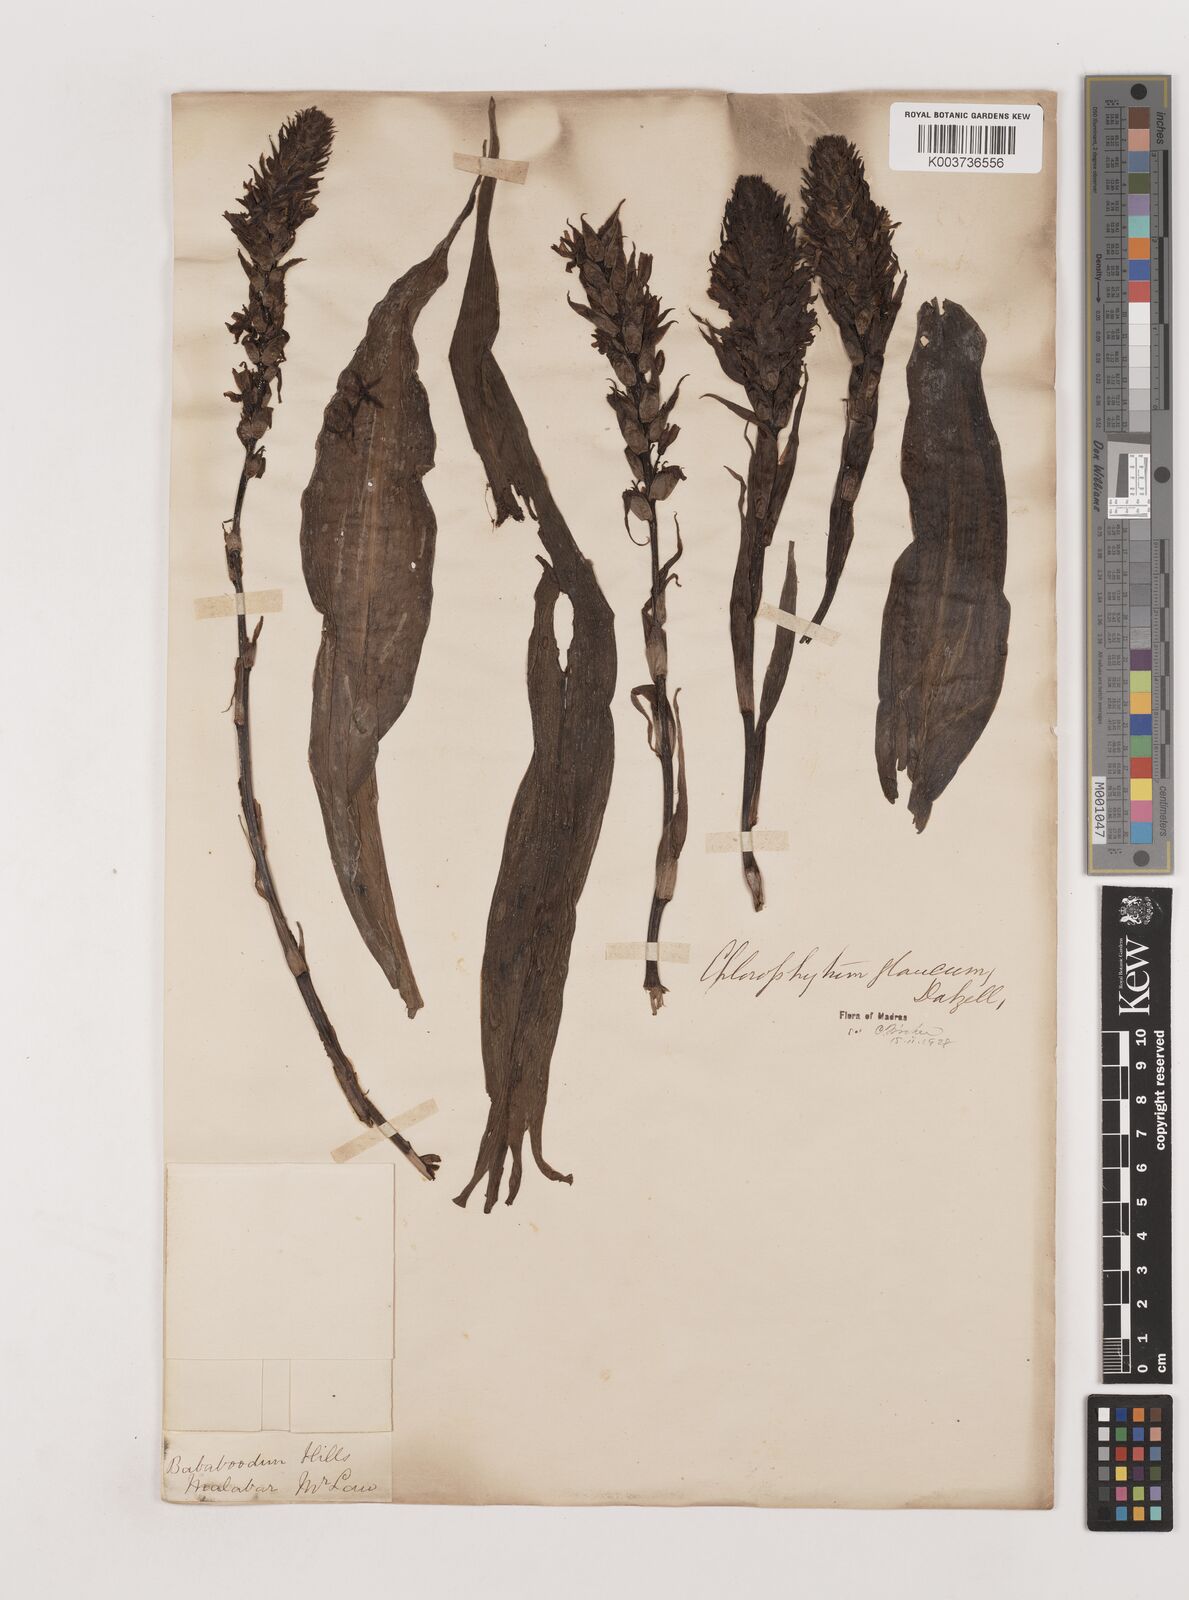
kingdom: Plantae
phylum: Tracheophyta
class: Liliopsida
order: Asparagales
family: Asparagaceae
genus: Chlorophytum
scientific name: Chlorophytum glaucum
